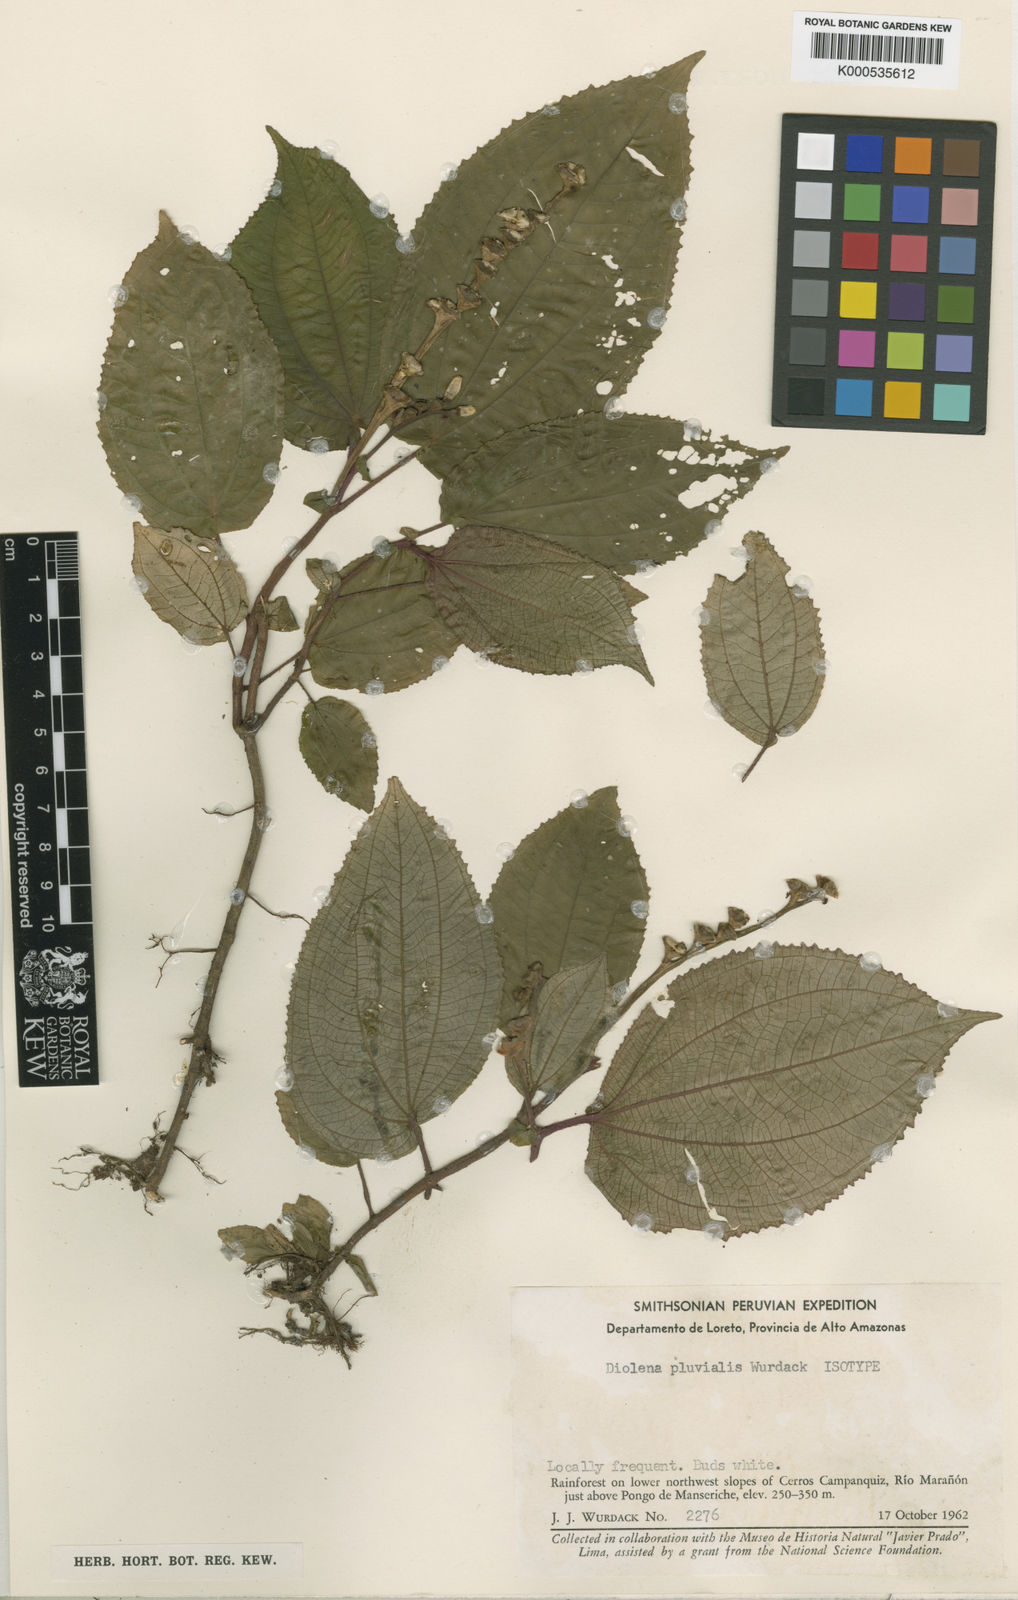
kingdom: Plantae
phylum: Tracheophyta
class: Magnoliopsida
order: Myrtales
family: Melastomataceae
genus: Triolena
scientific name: Triolena pluvialis
